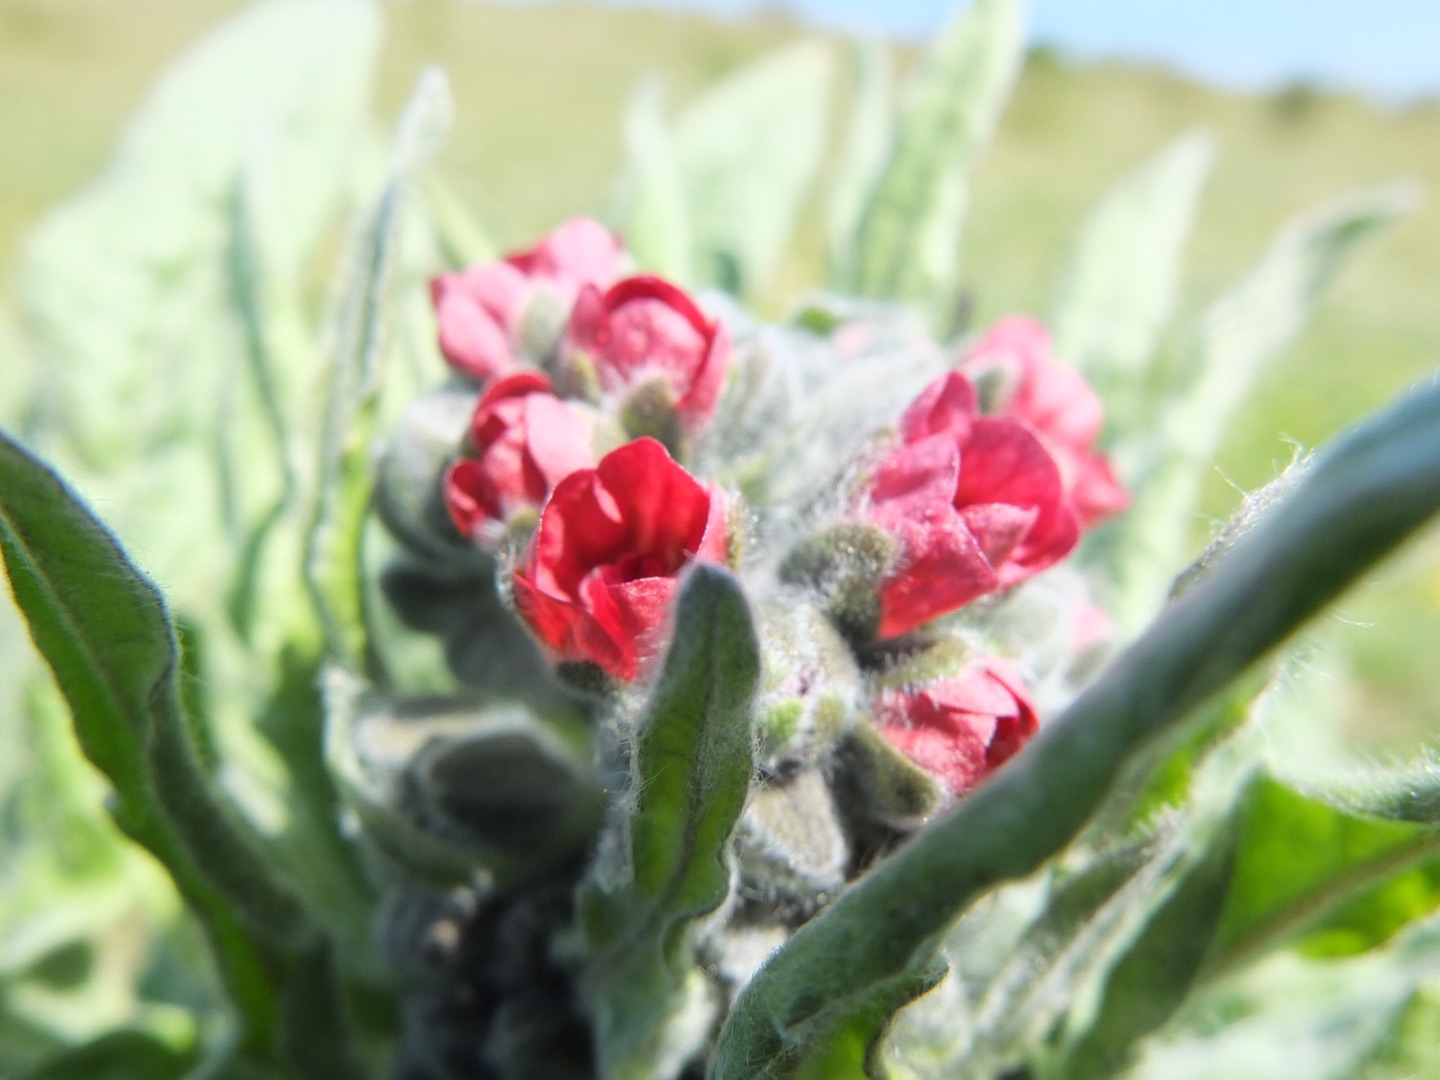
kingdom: Plantae
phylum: Tracheophyta
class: Magnoliopsida
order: Boraginales
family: Boraginaceae
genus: Cynoglossum
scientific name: Cynoglossum officinale
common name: Hundetunge
